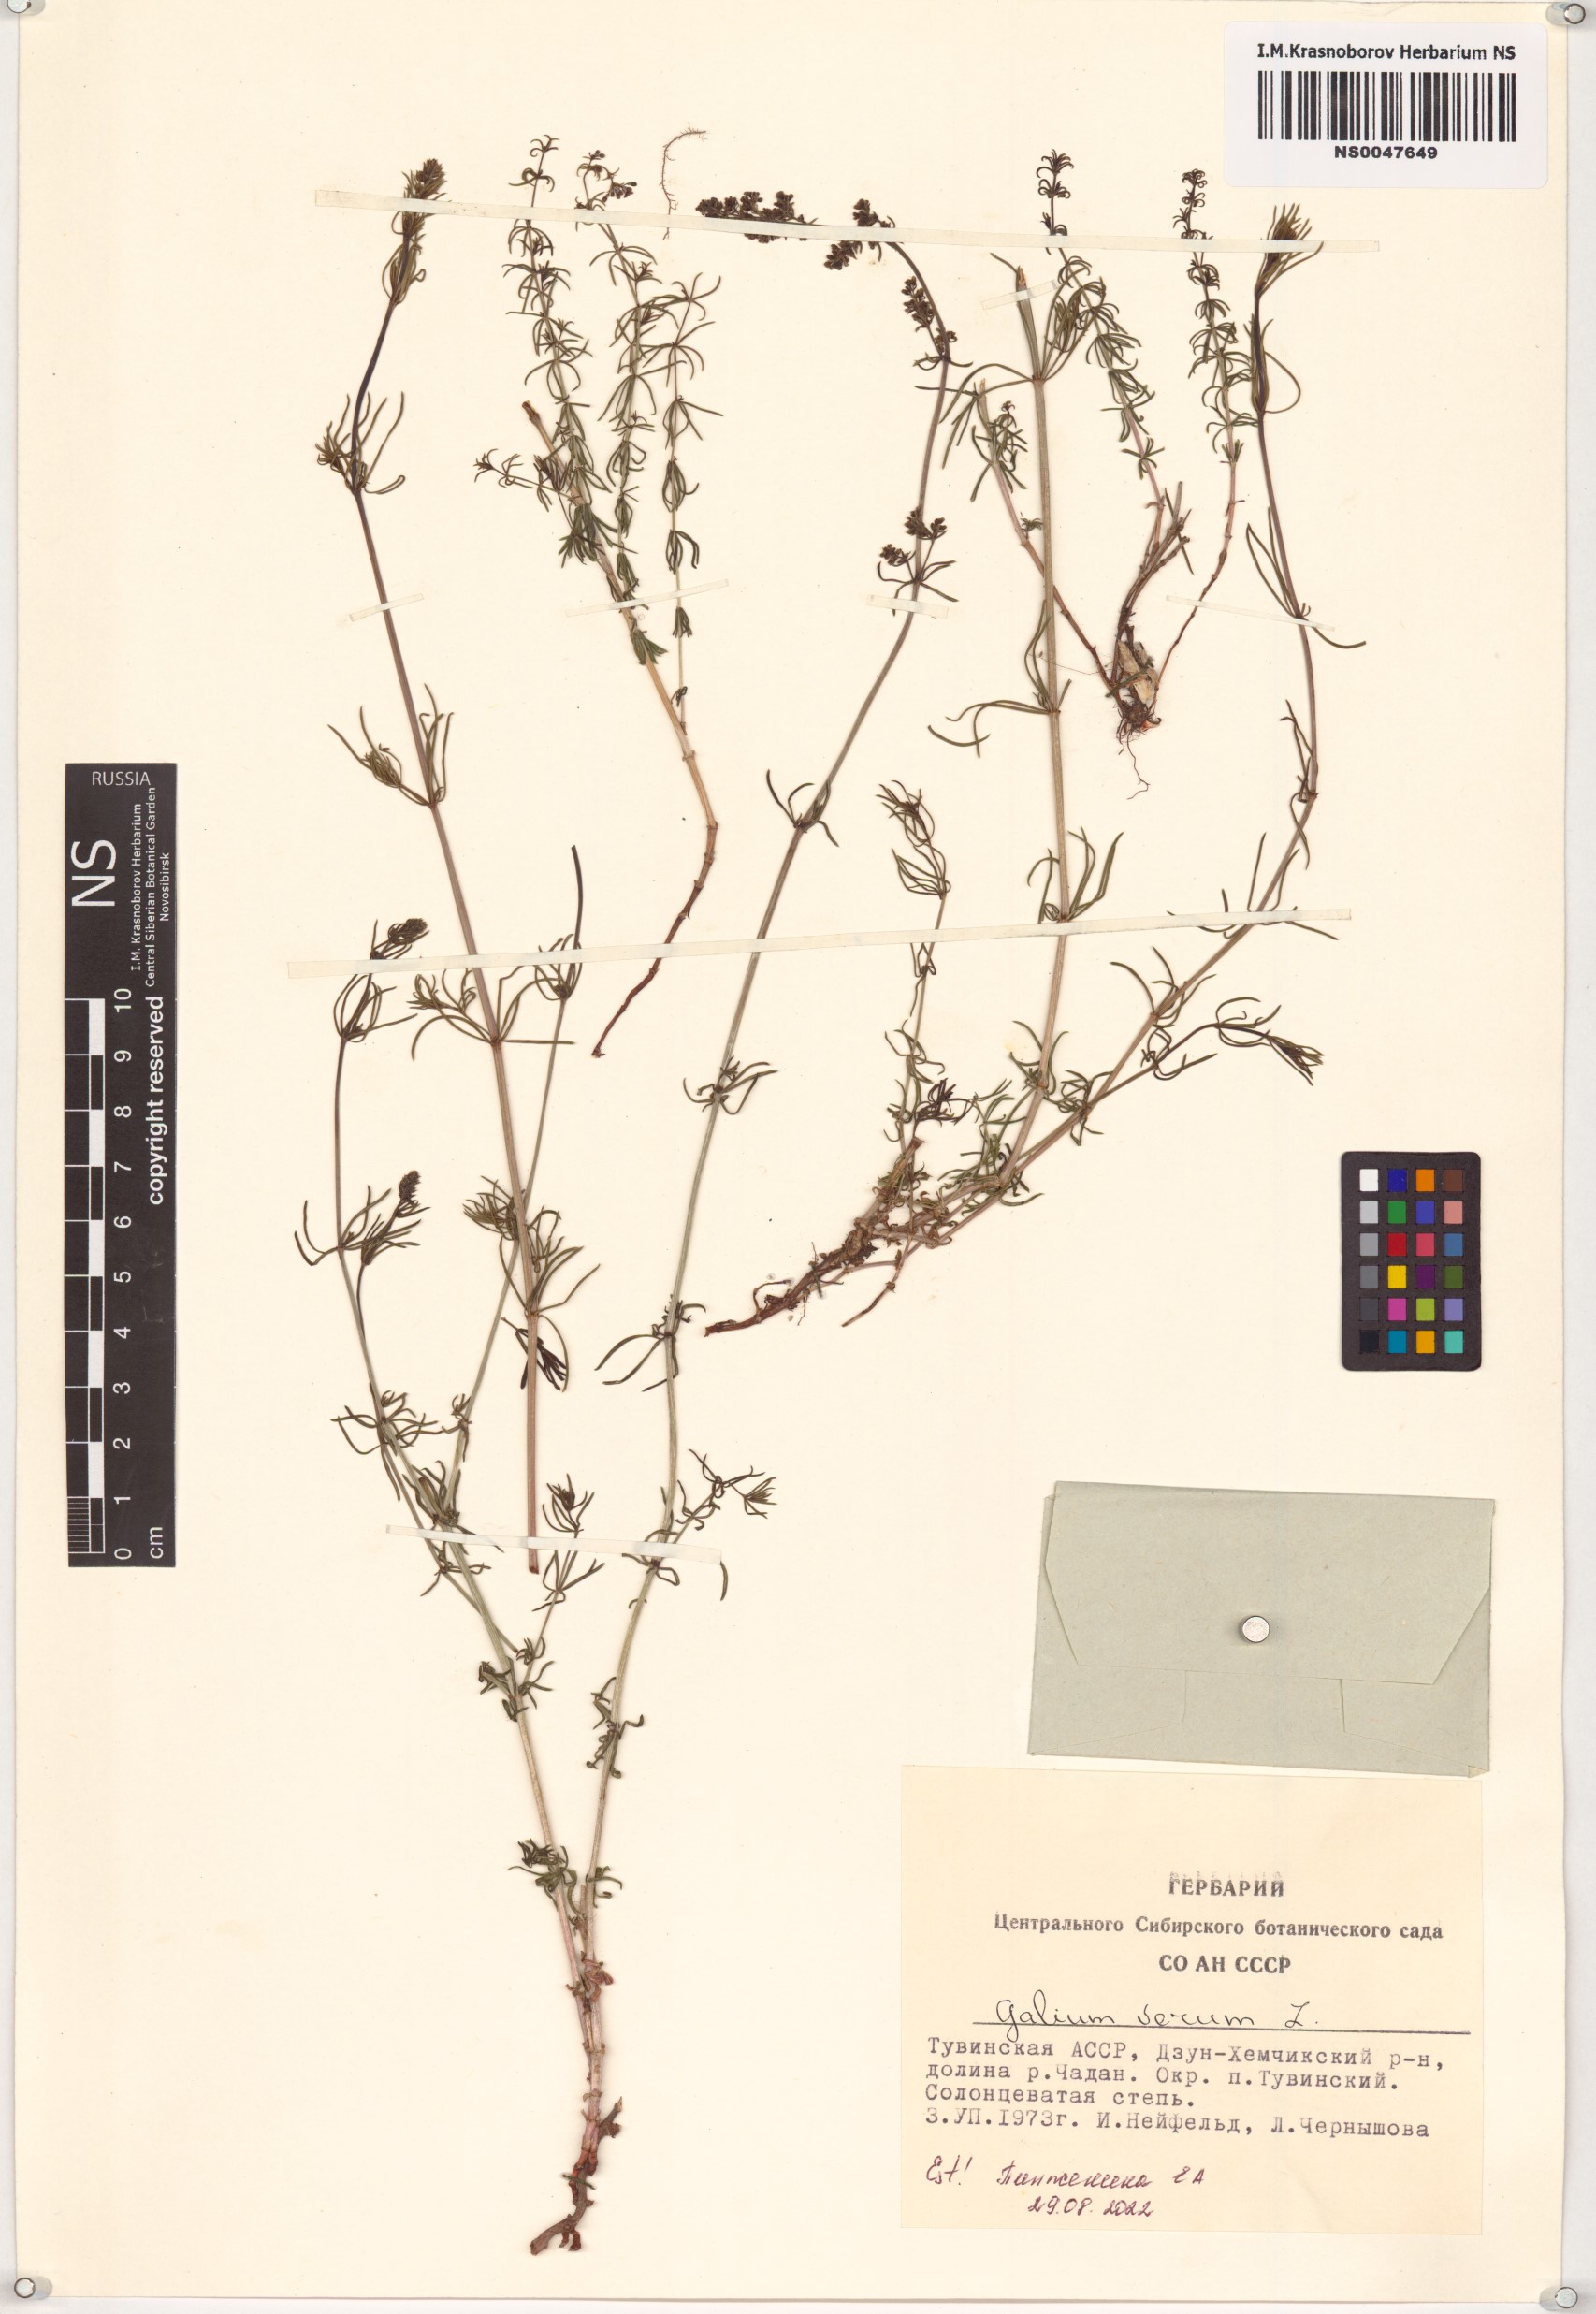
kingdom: Plantae
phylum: Tracheophyta
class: Magnoliopsida
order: Gentianales
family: Rubiaceae
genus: Galium
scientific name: Galium verum
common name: Lady's bedstraw
